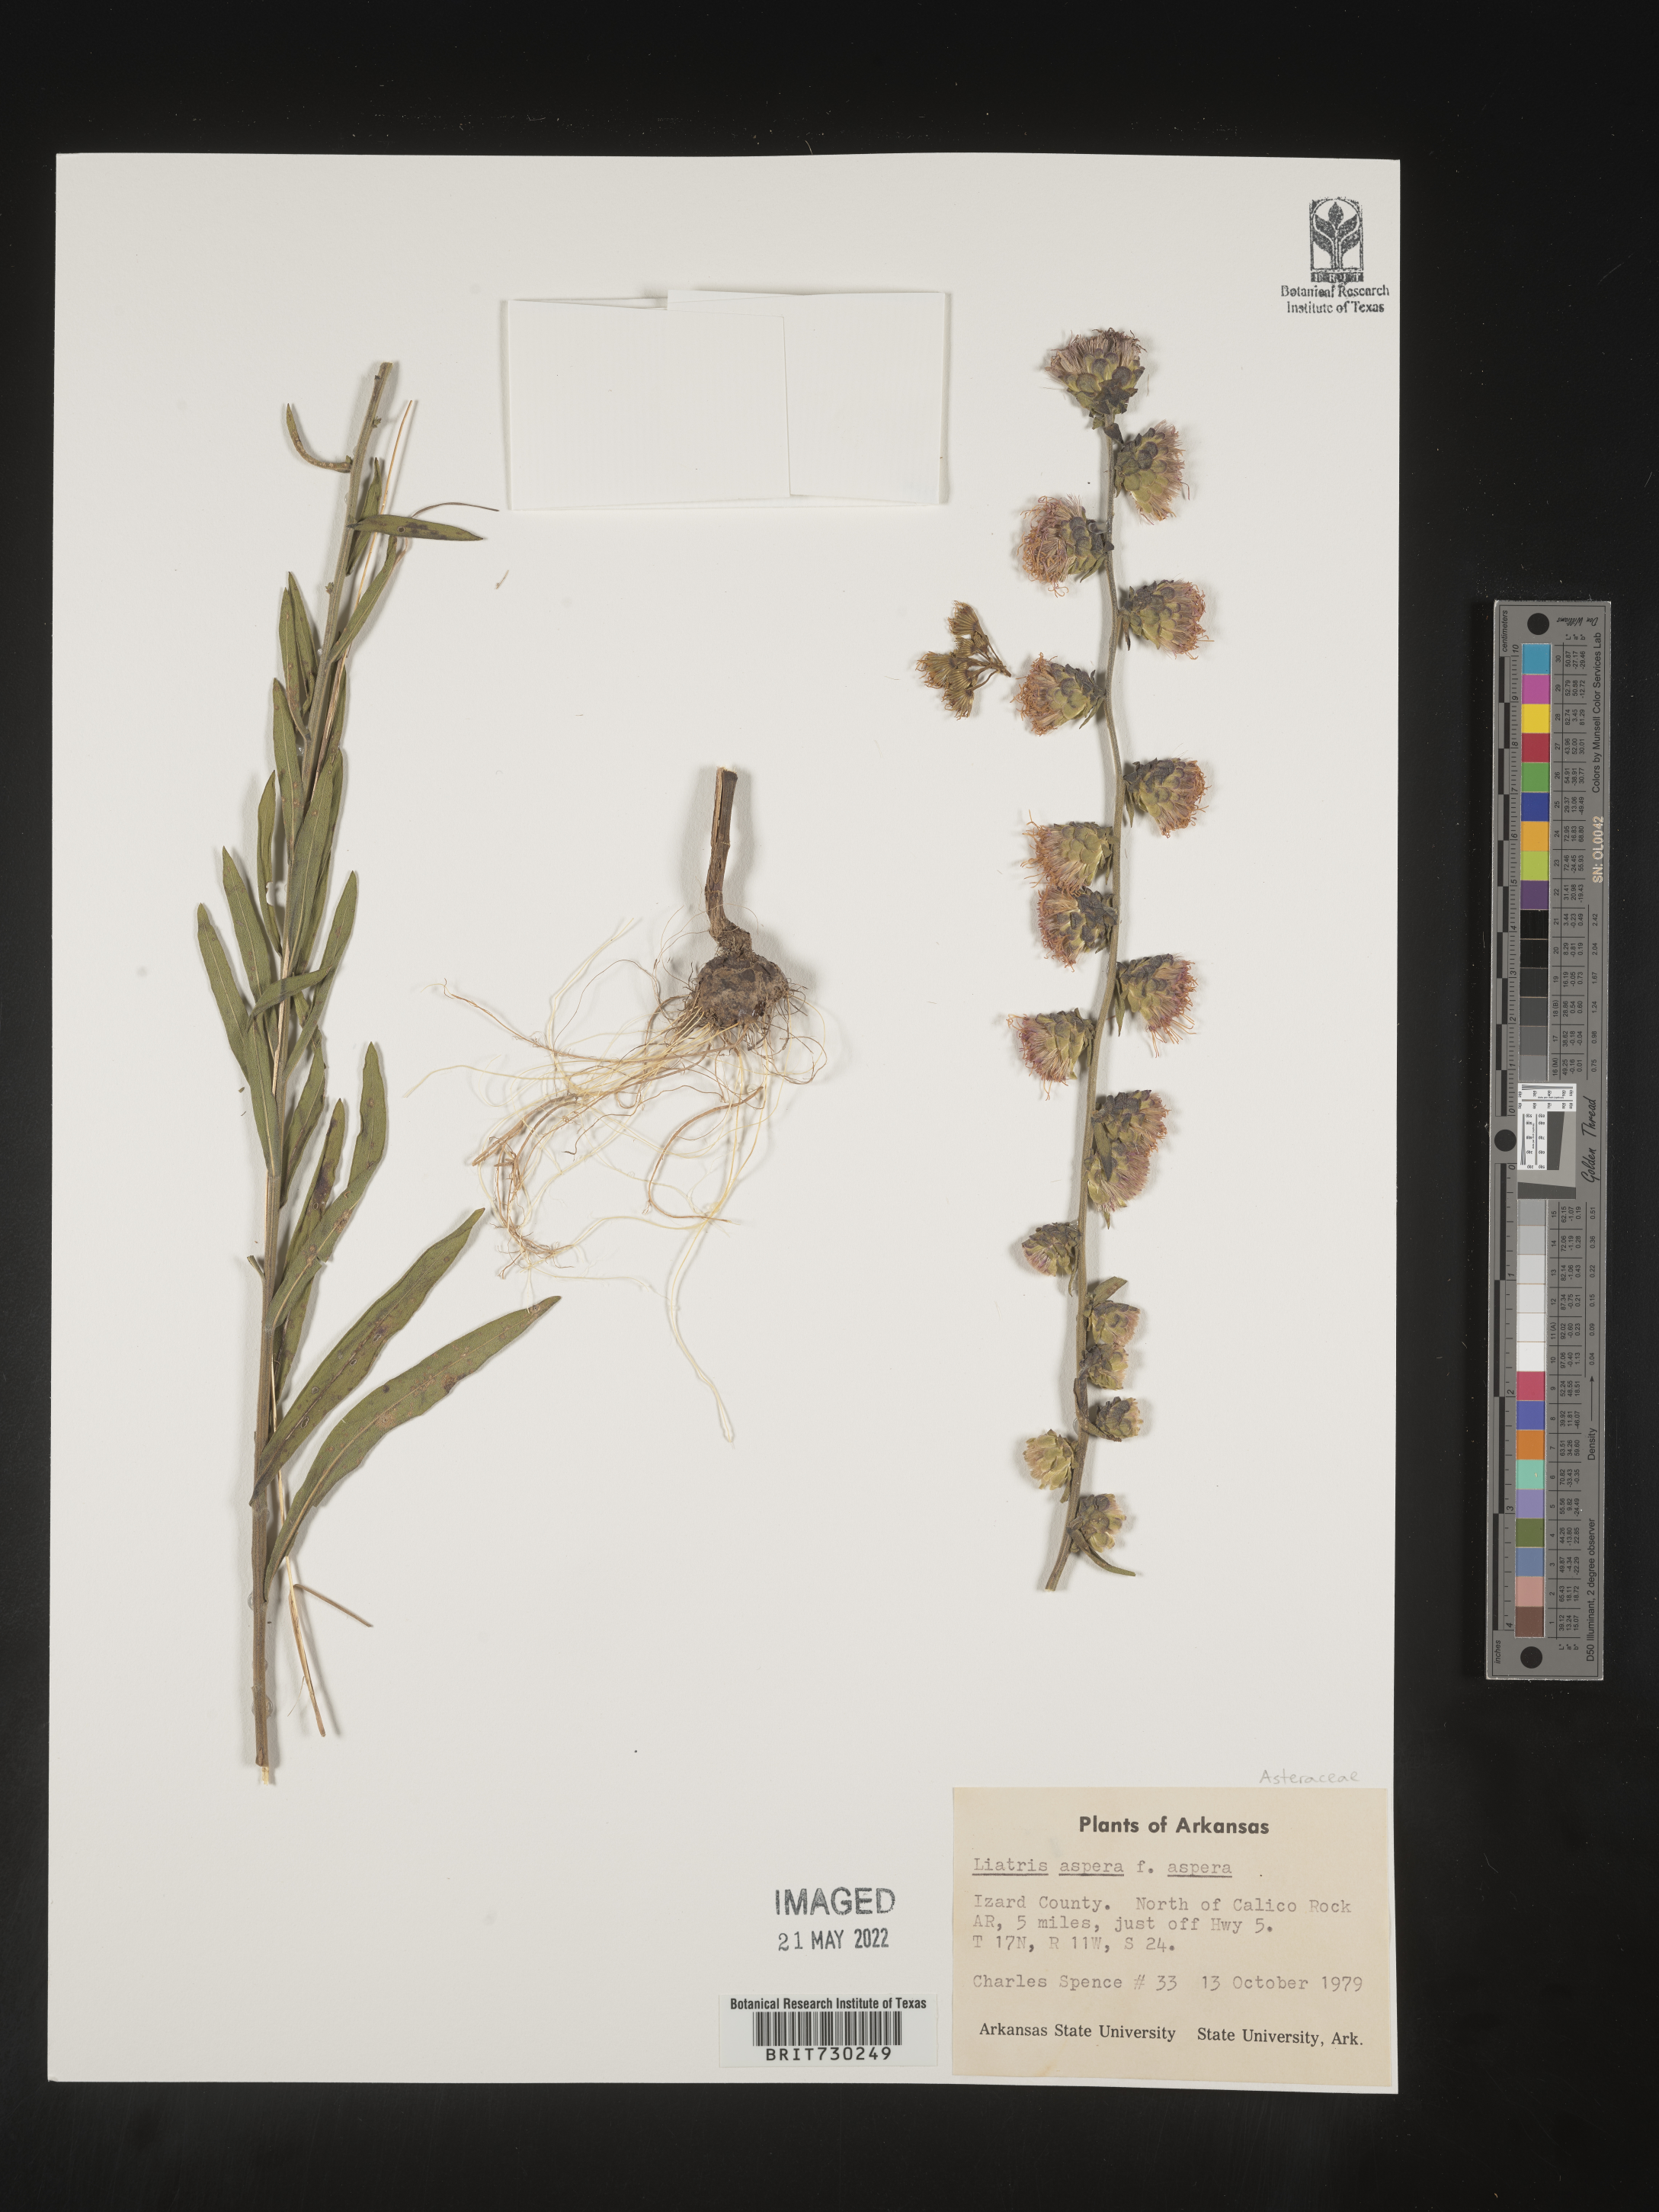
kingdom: Plantae
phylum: Tracheophyta
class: Magnoliopsida
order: Asterales
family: Asteraceae
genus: Liatris
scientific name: Liatris aspera
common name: Lacerate blazing-star
